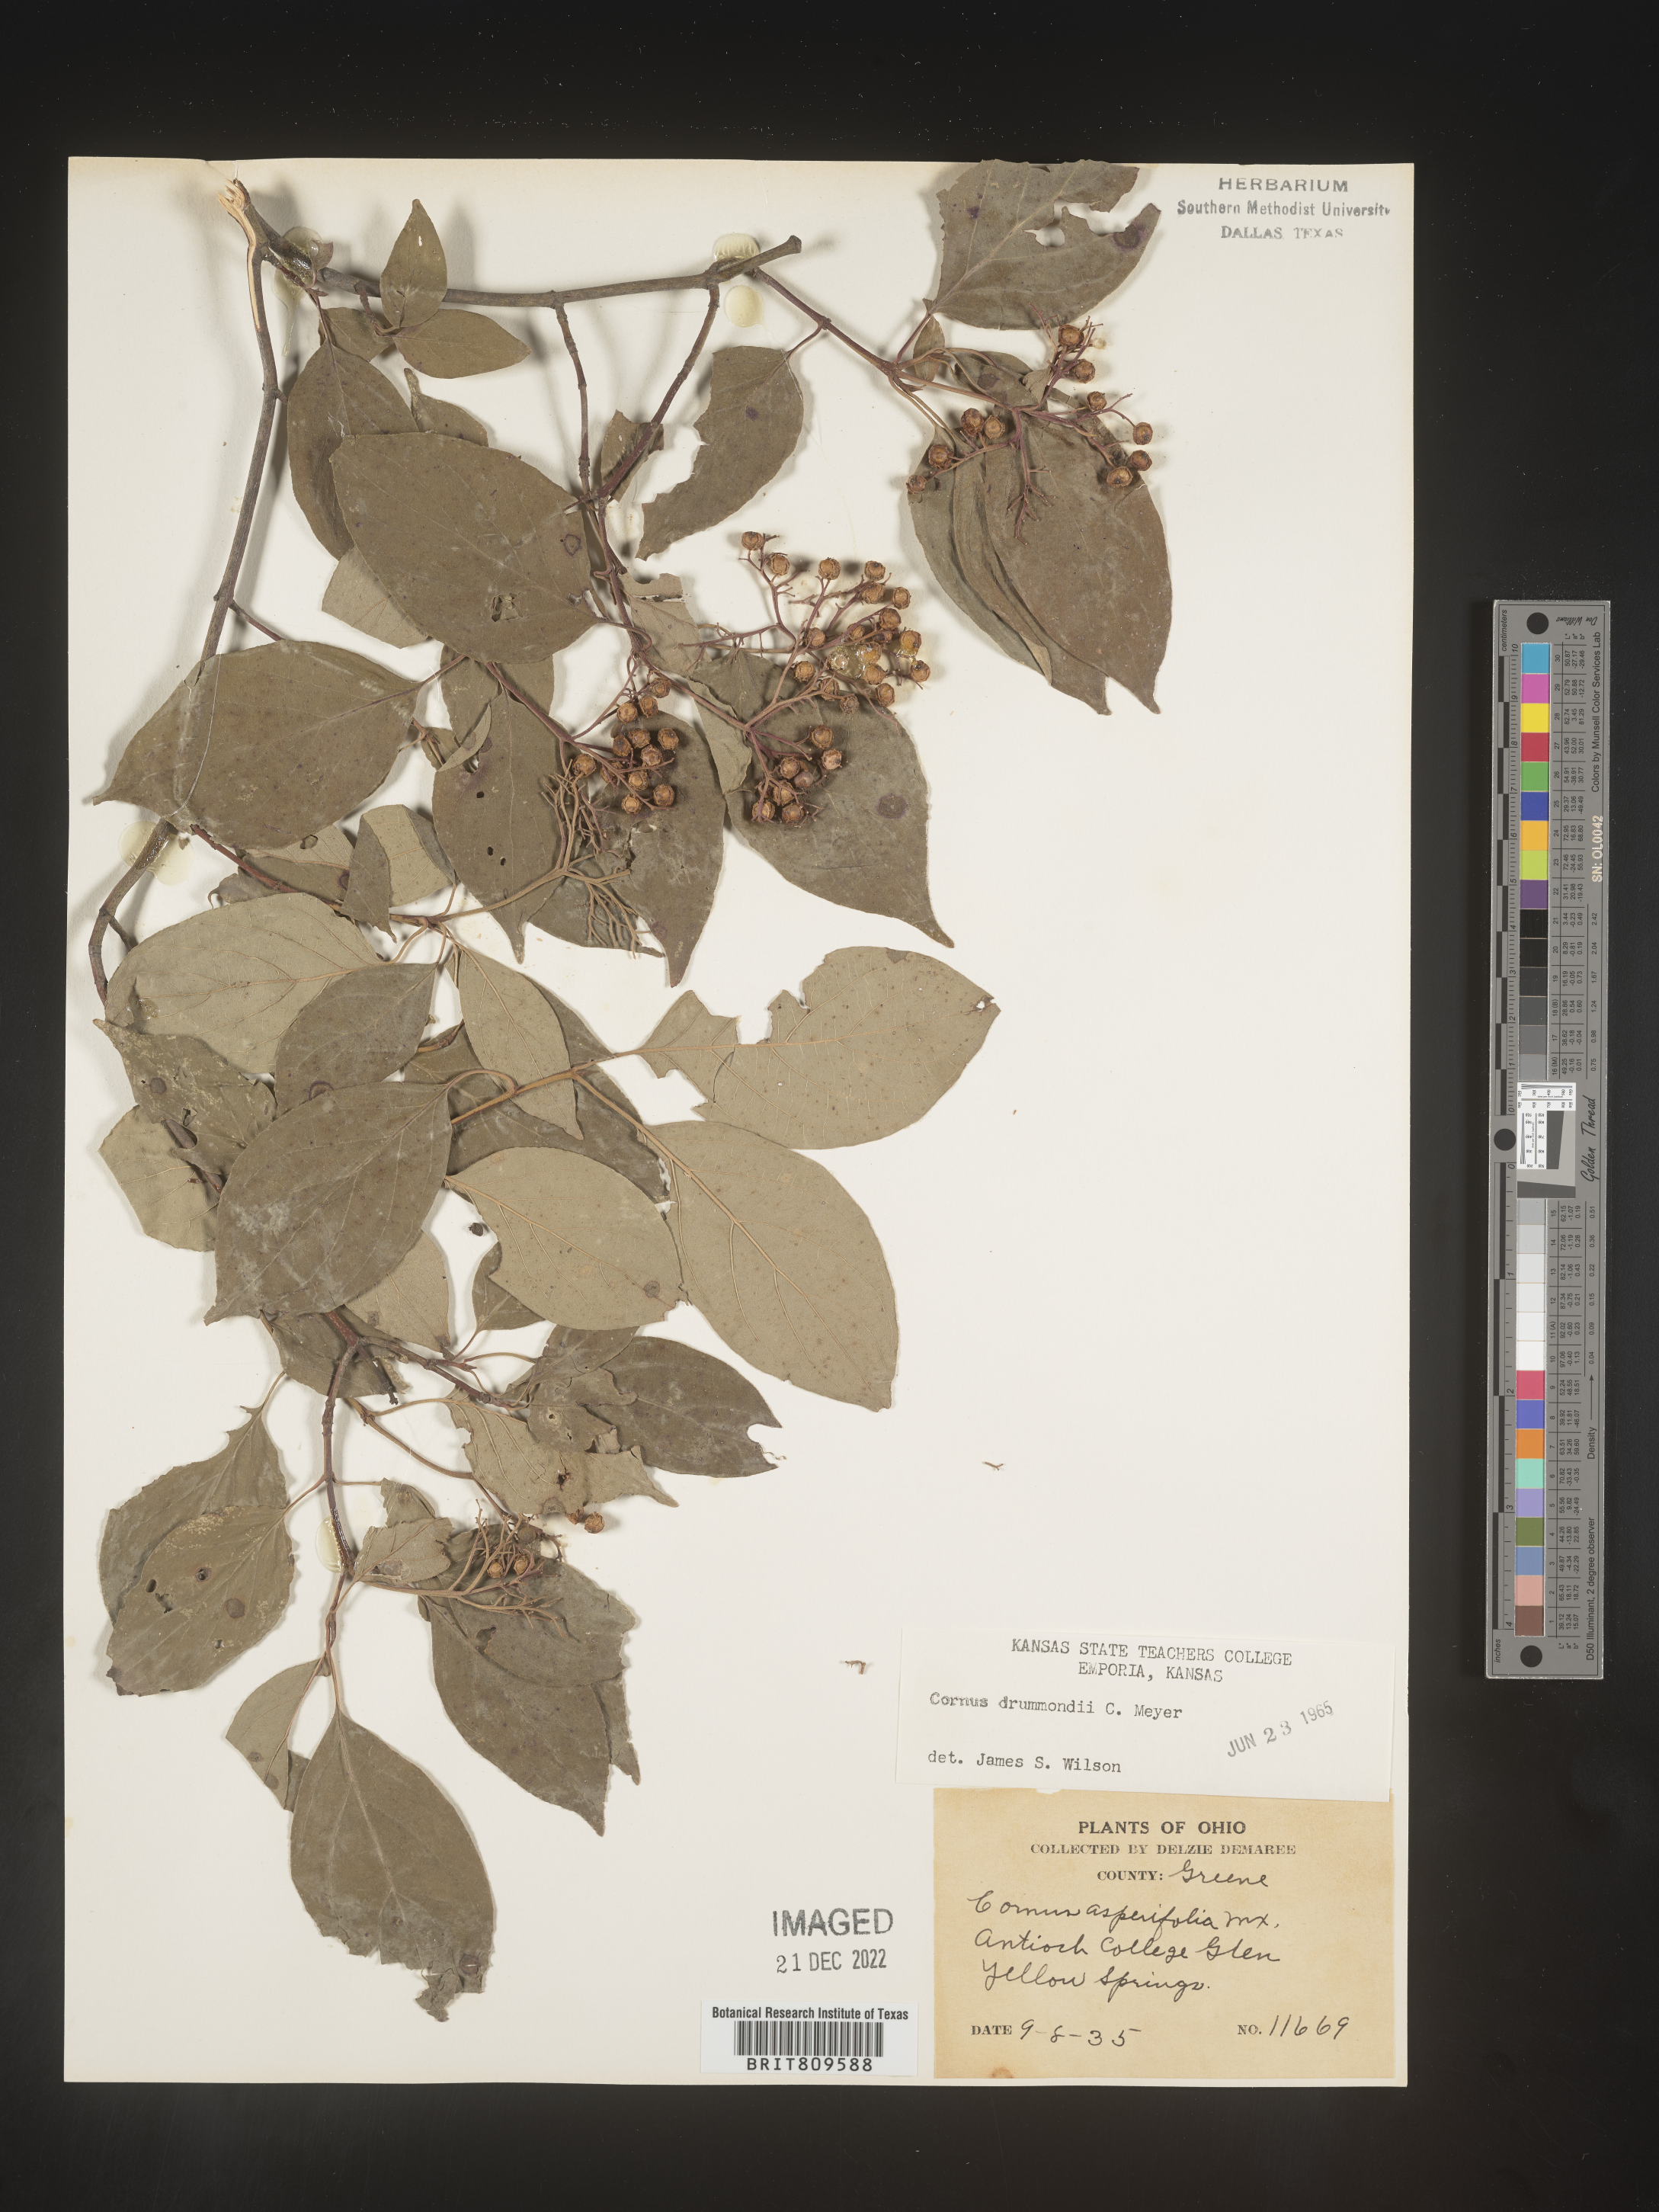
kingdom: Plantae
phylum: Tracheophyta
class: Magnoliopsida
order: Cornales
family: Cornaceae
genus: Cornus
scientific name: Cornus drummondii
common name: Rough-leaf dogwood
